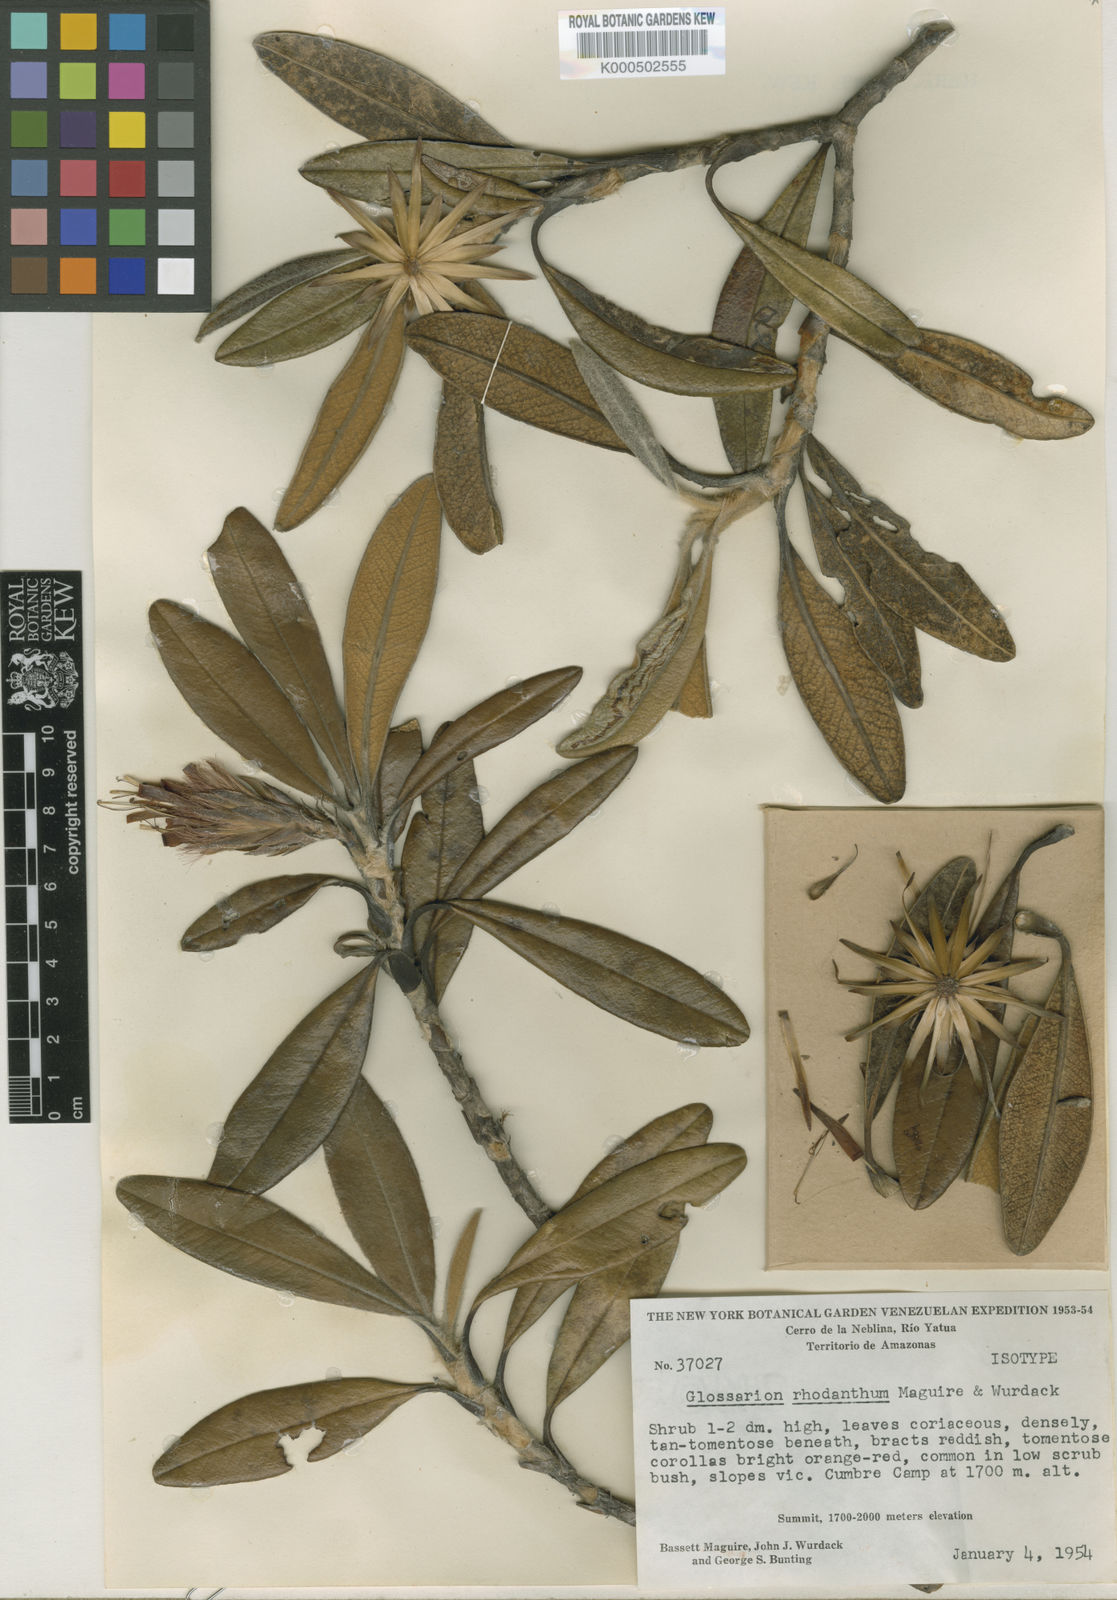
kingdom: Plantae
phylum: Tracheophyta
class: Magnoliopsida
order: Asterales
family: Asteraceae
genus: Glossarion
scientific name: Glossarion rhodanthum
